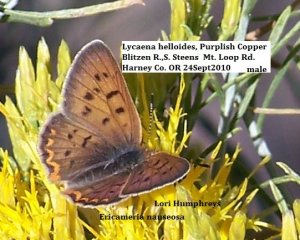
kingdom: Animalia
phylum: Arthropoda
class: Insecta
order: Lepidoptera
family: Sesiidae
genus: Sesia
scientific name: Sesia Lycaena helloides
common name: Purplish Copper
